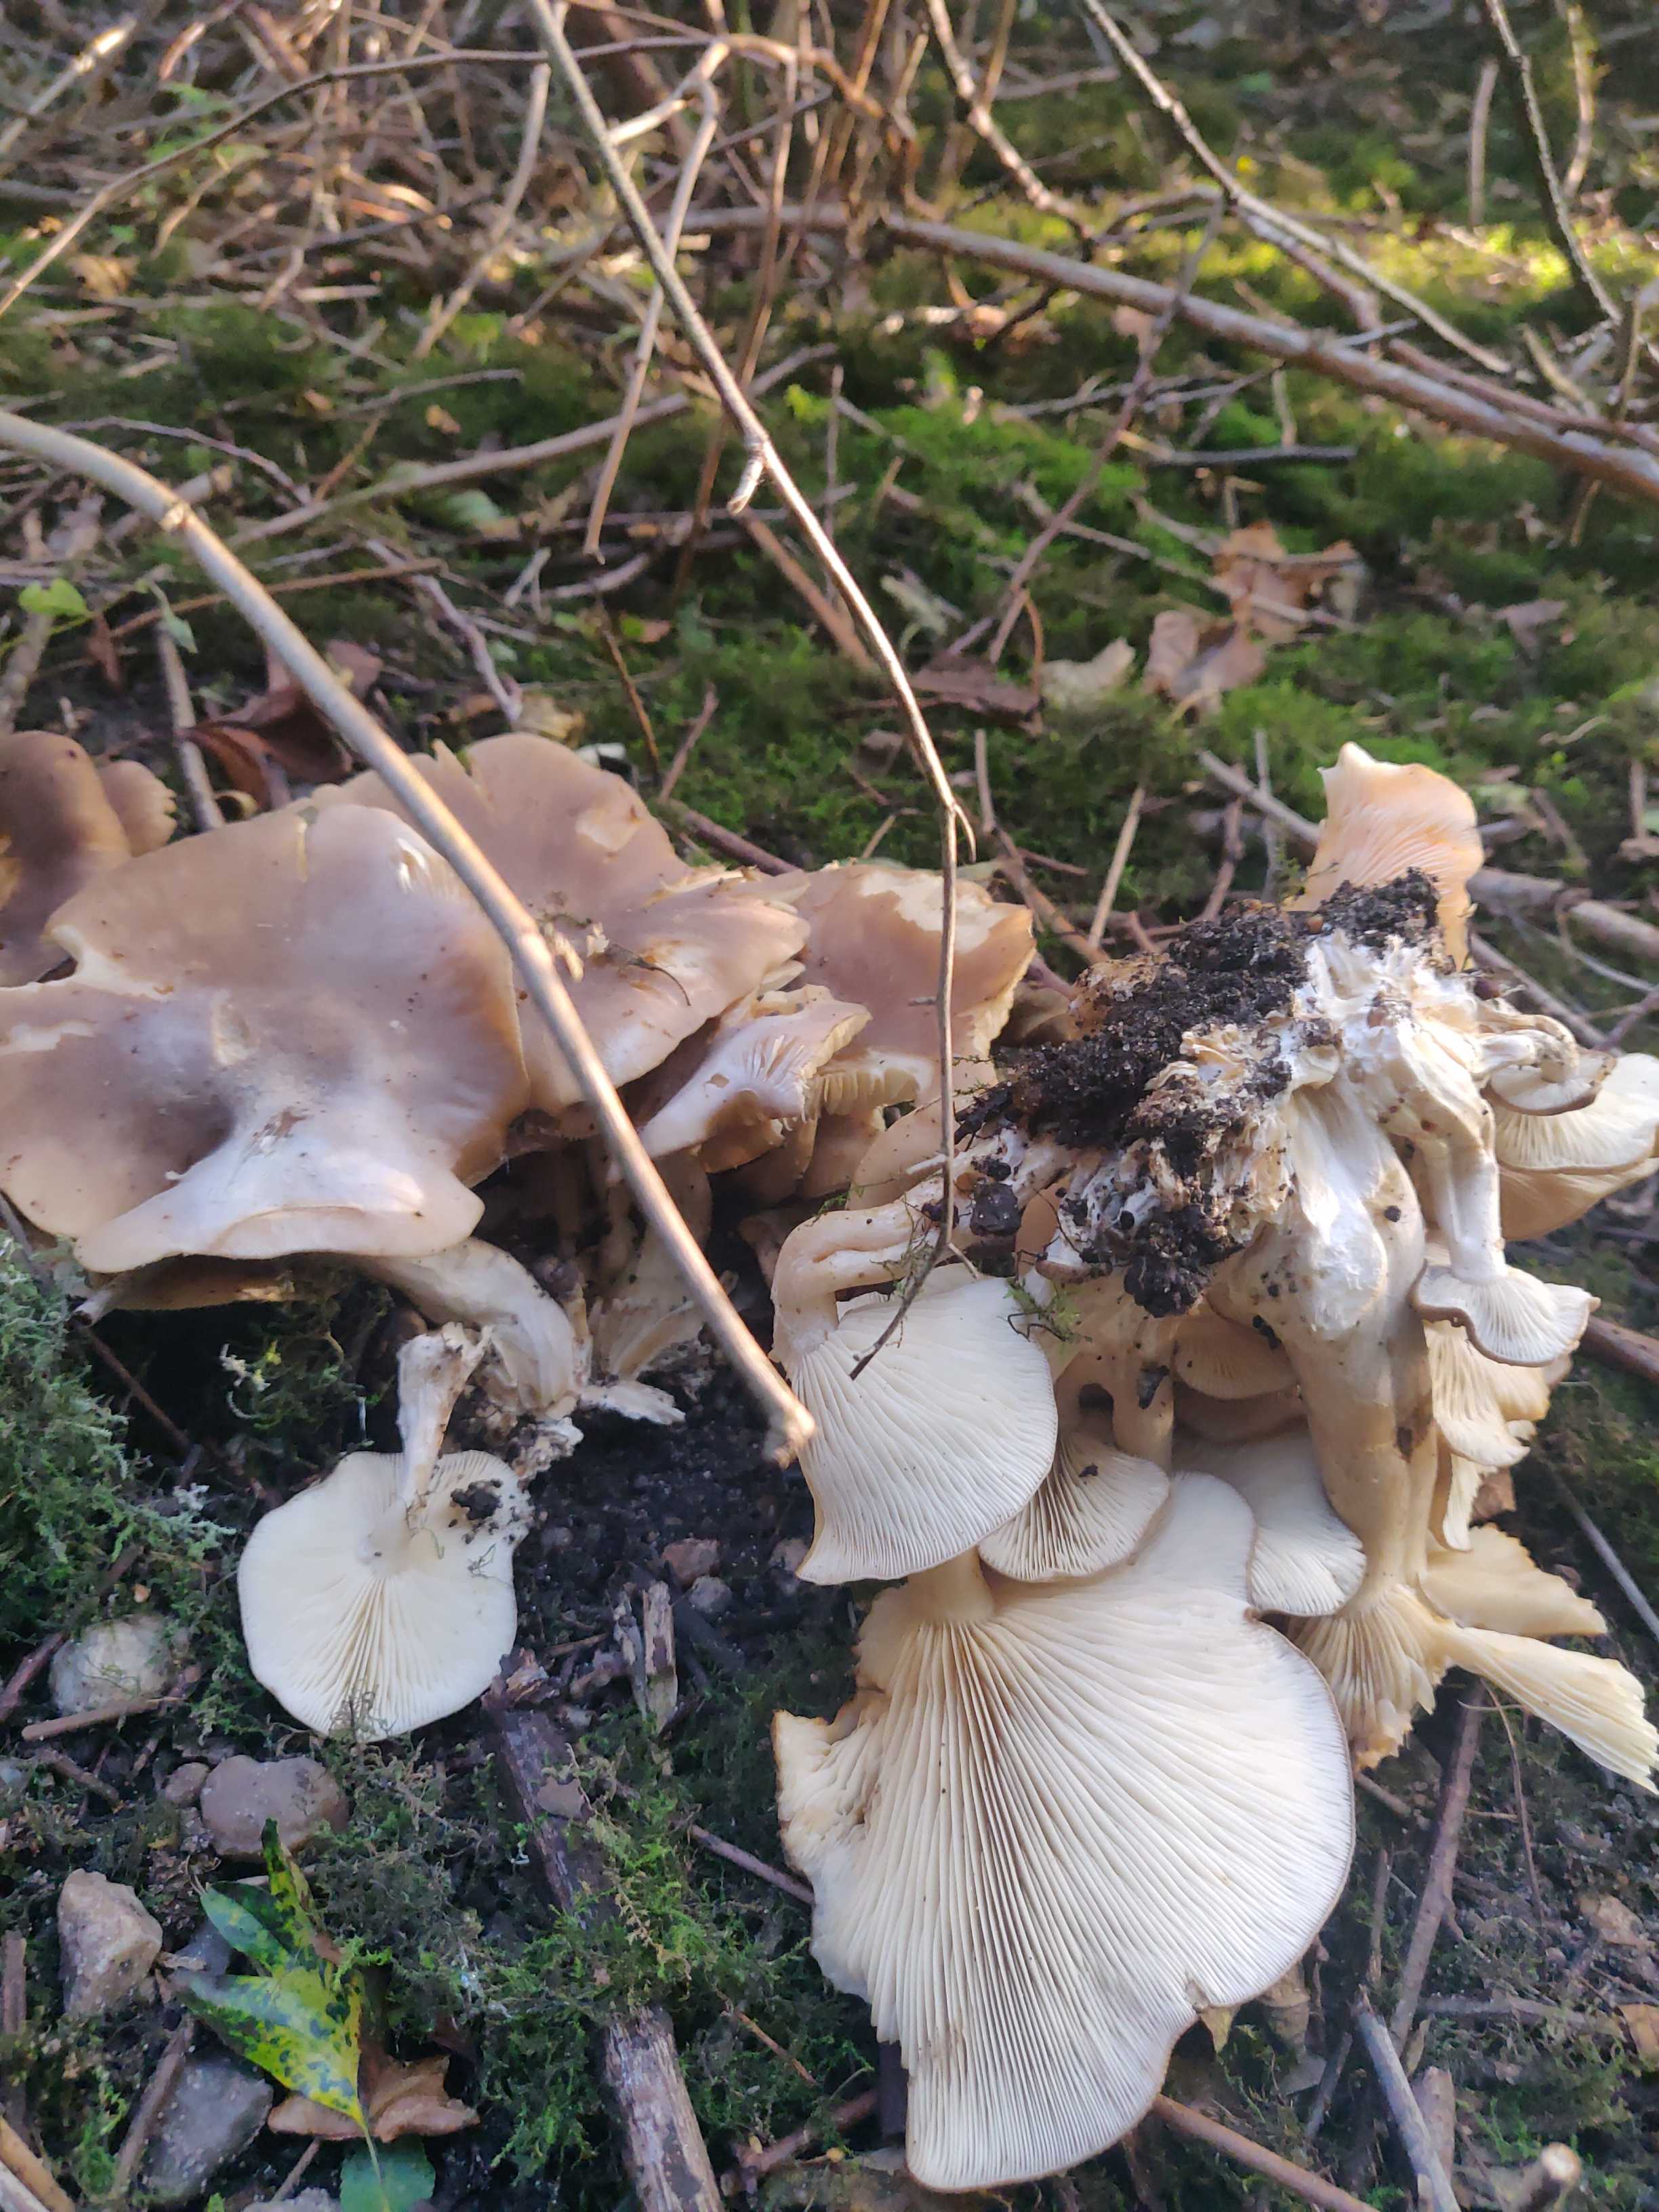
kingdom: Fungi
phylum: Basidiomycota
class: Agaricomycetes
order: Agaricales
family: Lyophyllaceae
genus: Lyophyllum
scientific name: Lyophyllum
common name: gråblad
